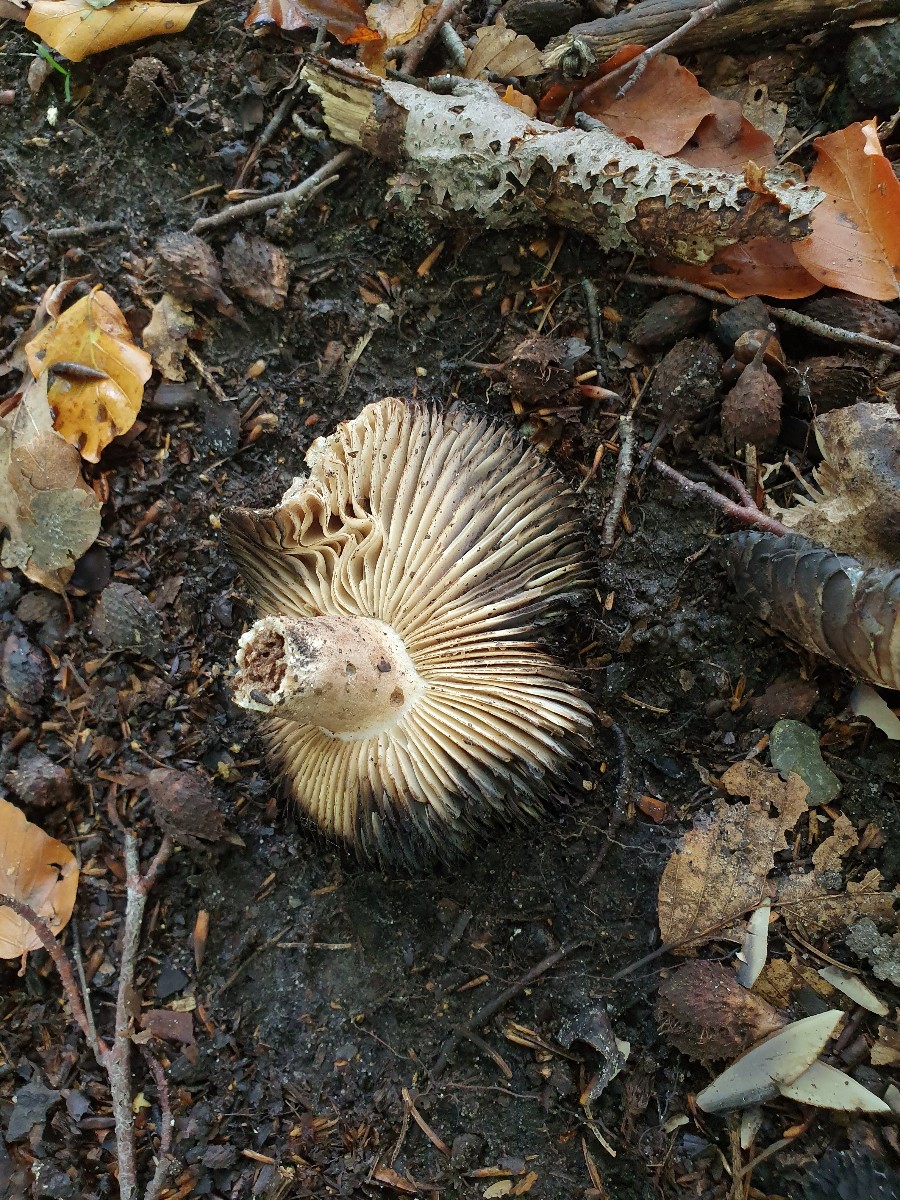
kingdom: Fungi
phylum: Basidiomycota
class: Agaricomycetes
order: Russulales
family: Russulaceae
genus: Russula
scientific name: Russula adusta
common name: sværtende skørhat
